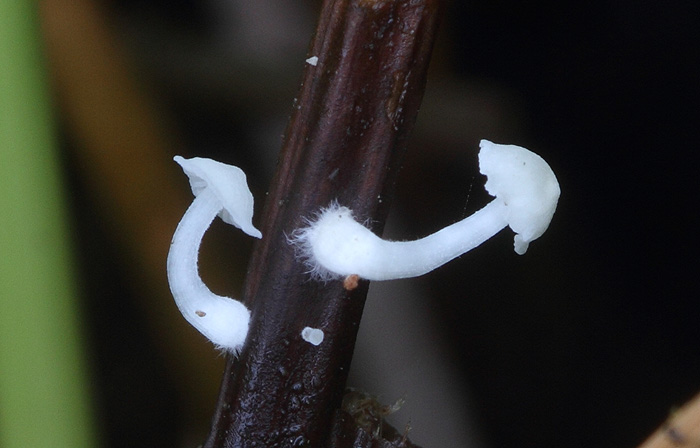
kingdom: Fungi
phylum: Basidiomycota
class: Agaricomycetes
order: Agaricales
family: Mycenaceae
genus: Atheniella
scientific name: Atheniella delectabilis
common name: nitrøs huesvamp
